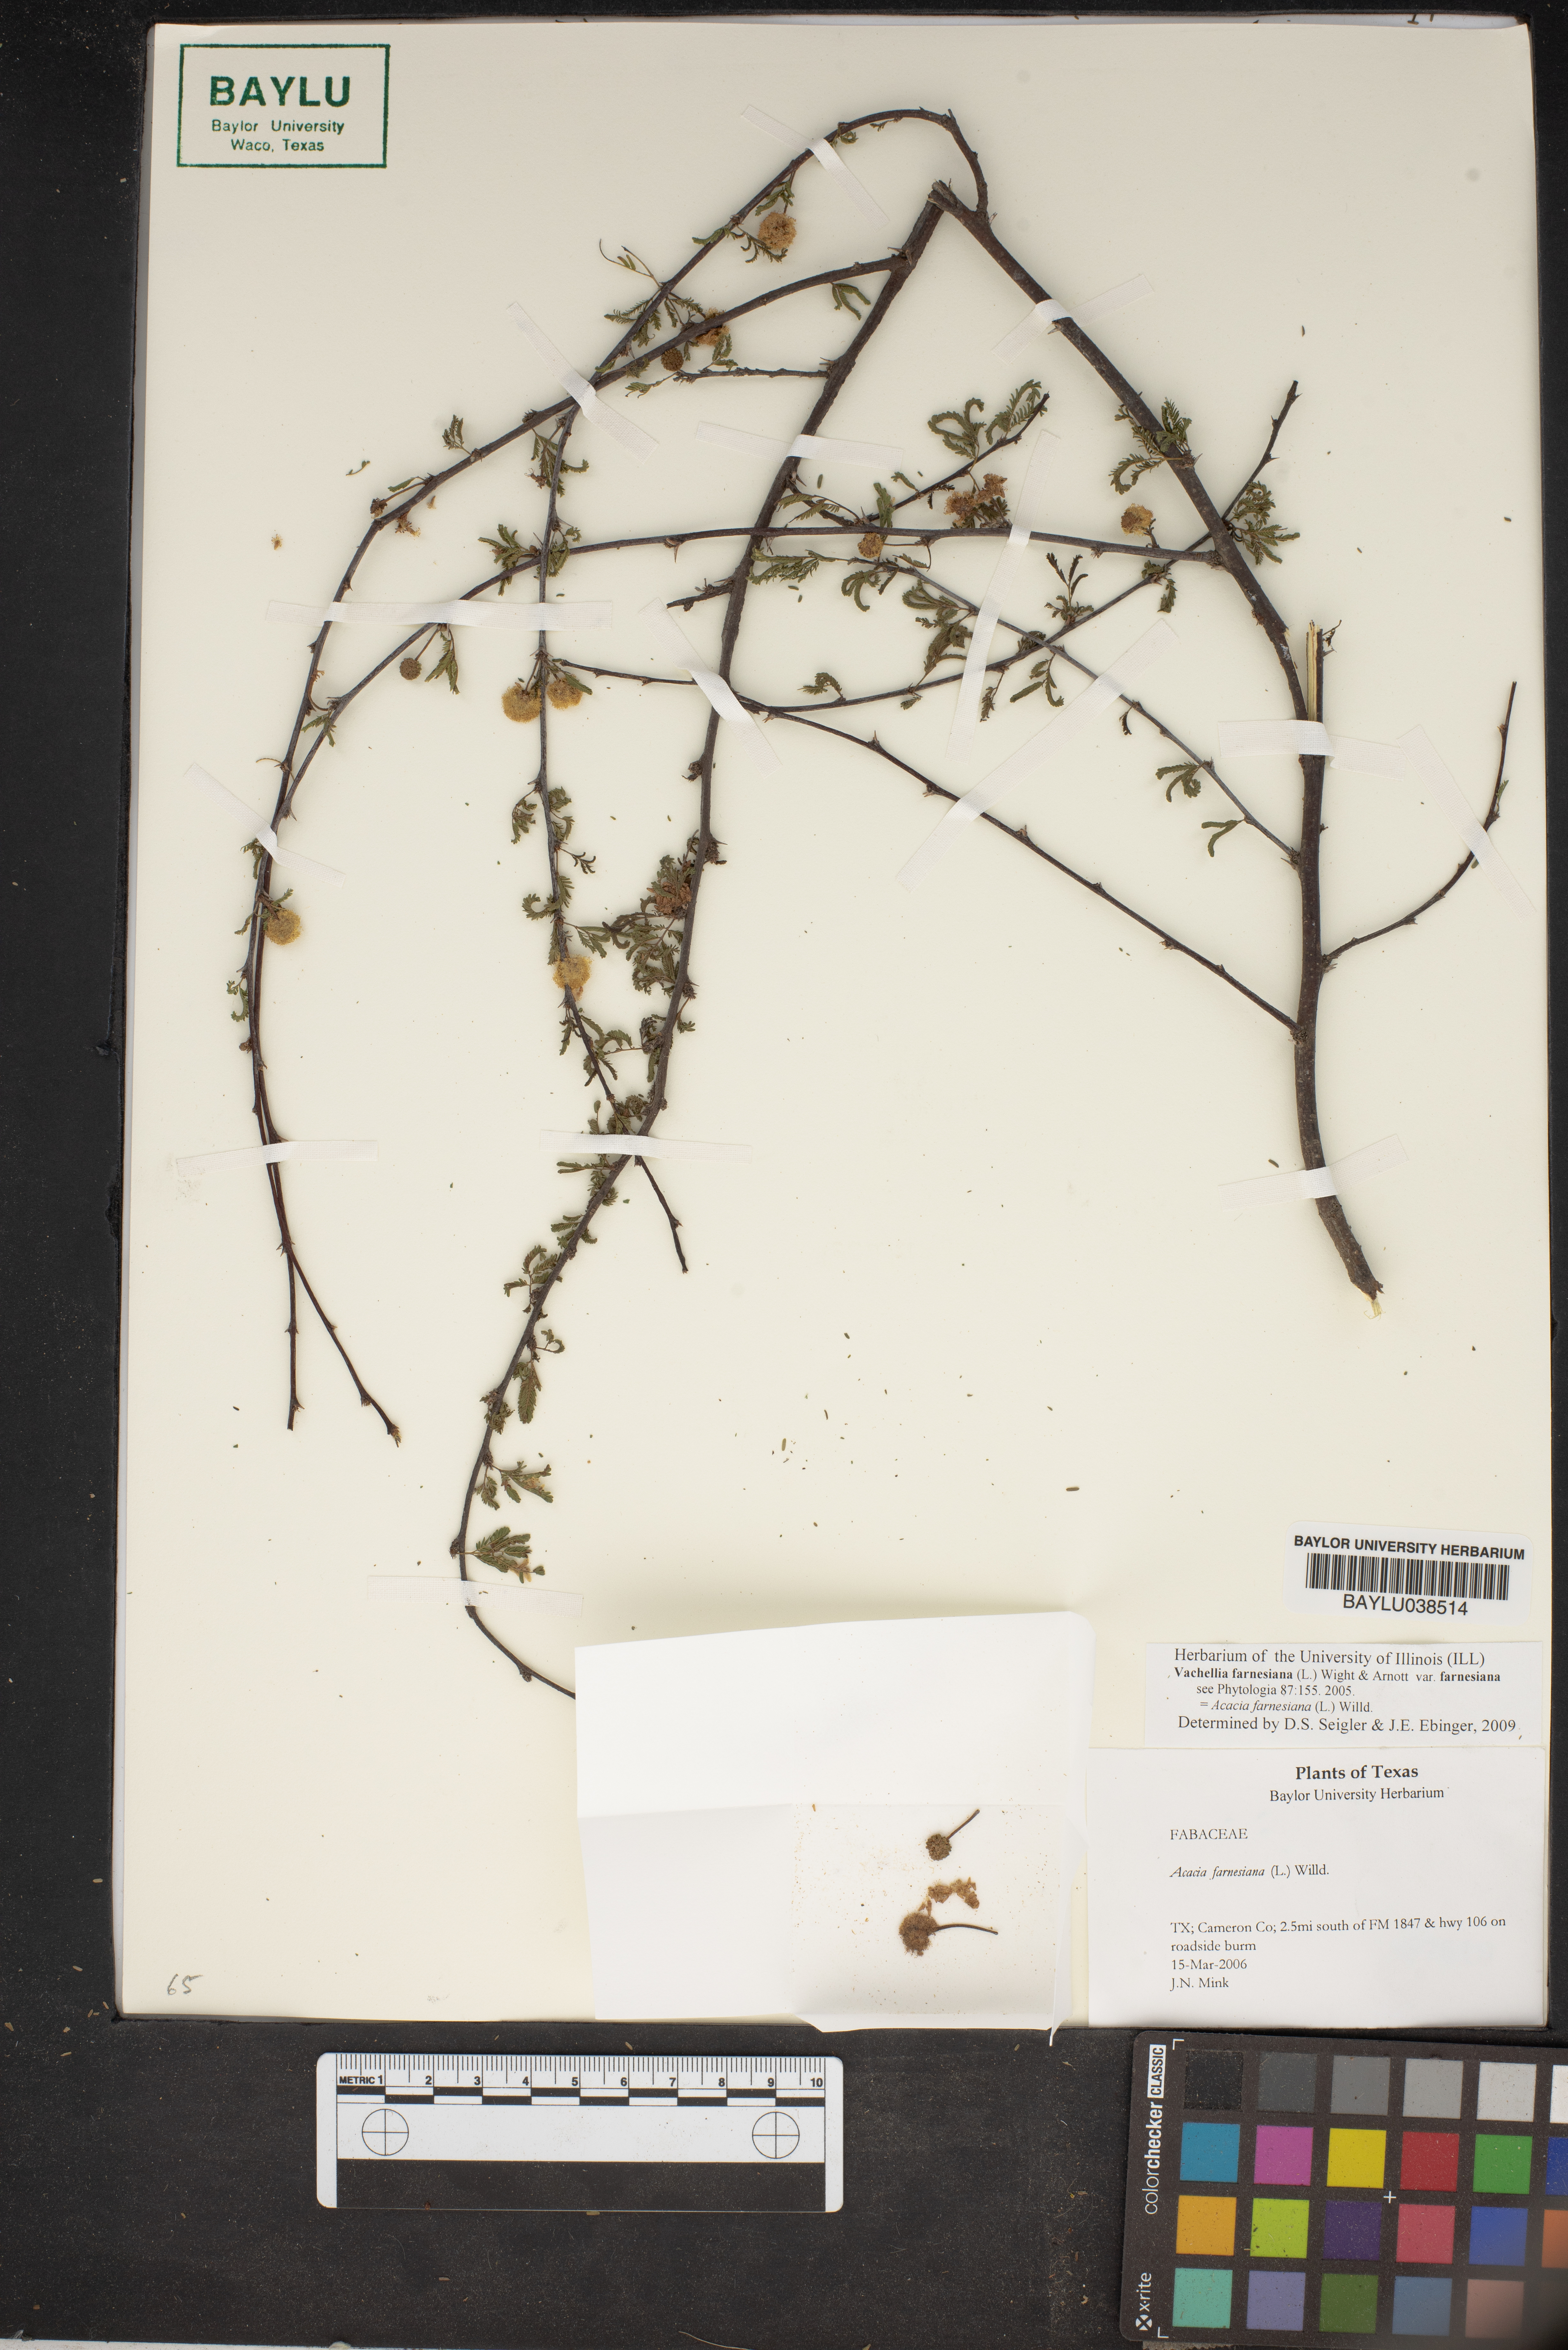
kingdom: Plantae
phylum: Tracheophyta
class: Magnoliopsida
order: Fabales
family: Fabaceae
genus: Vachellia
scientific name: Vachellia farnesiana
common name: Sweet acacia
